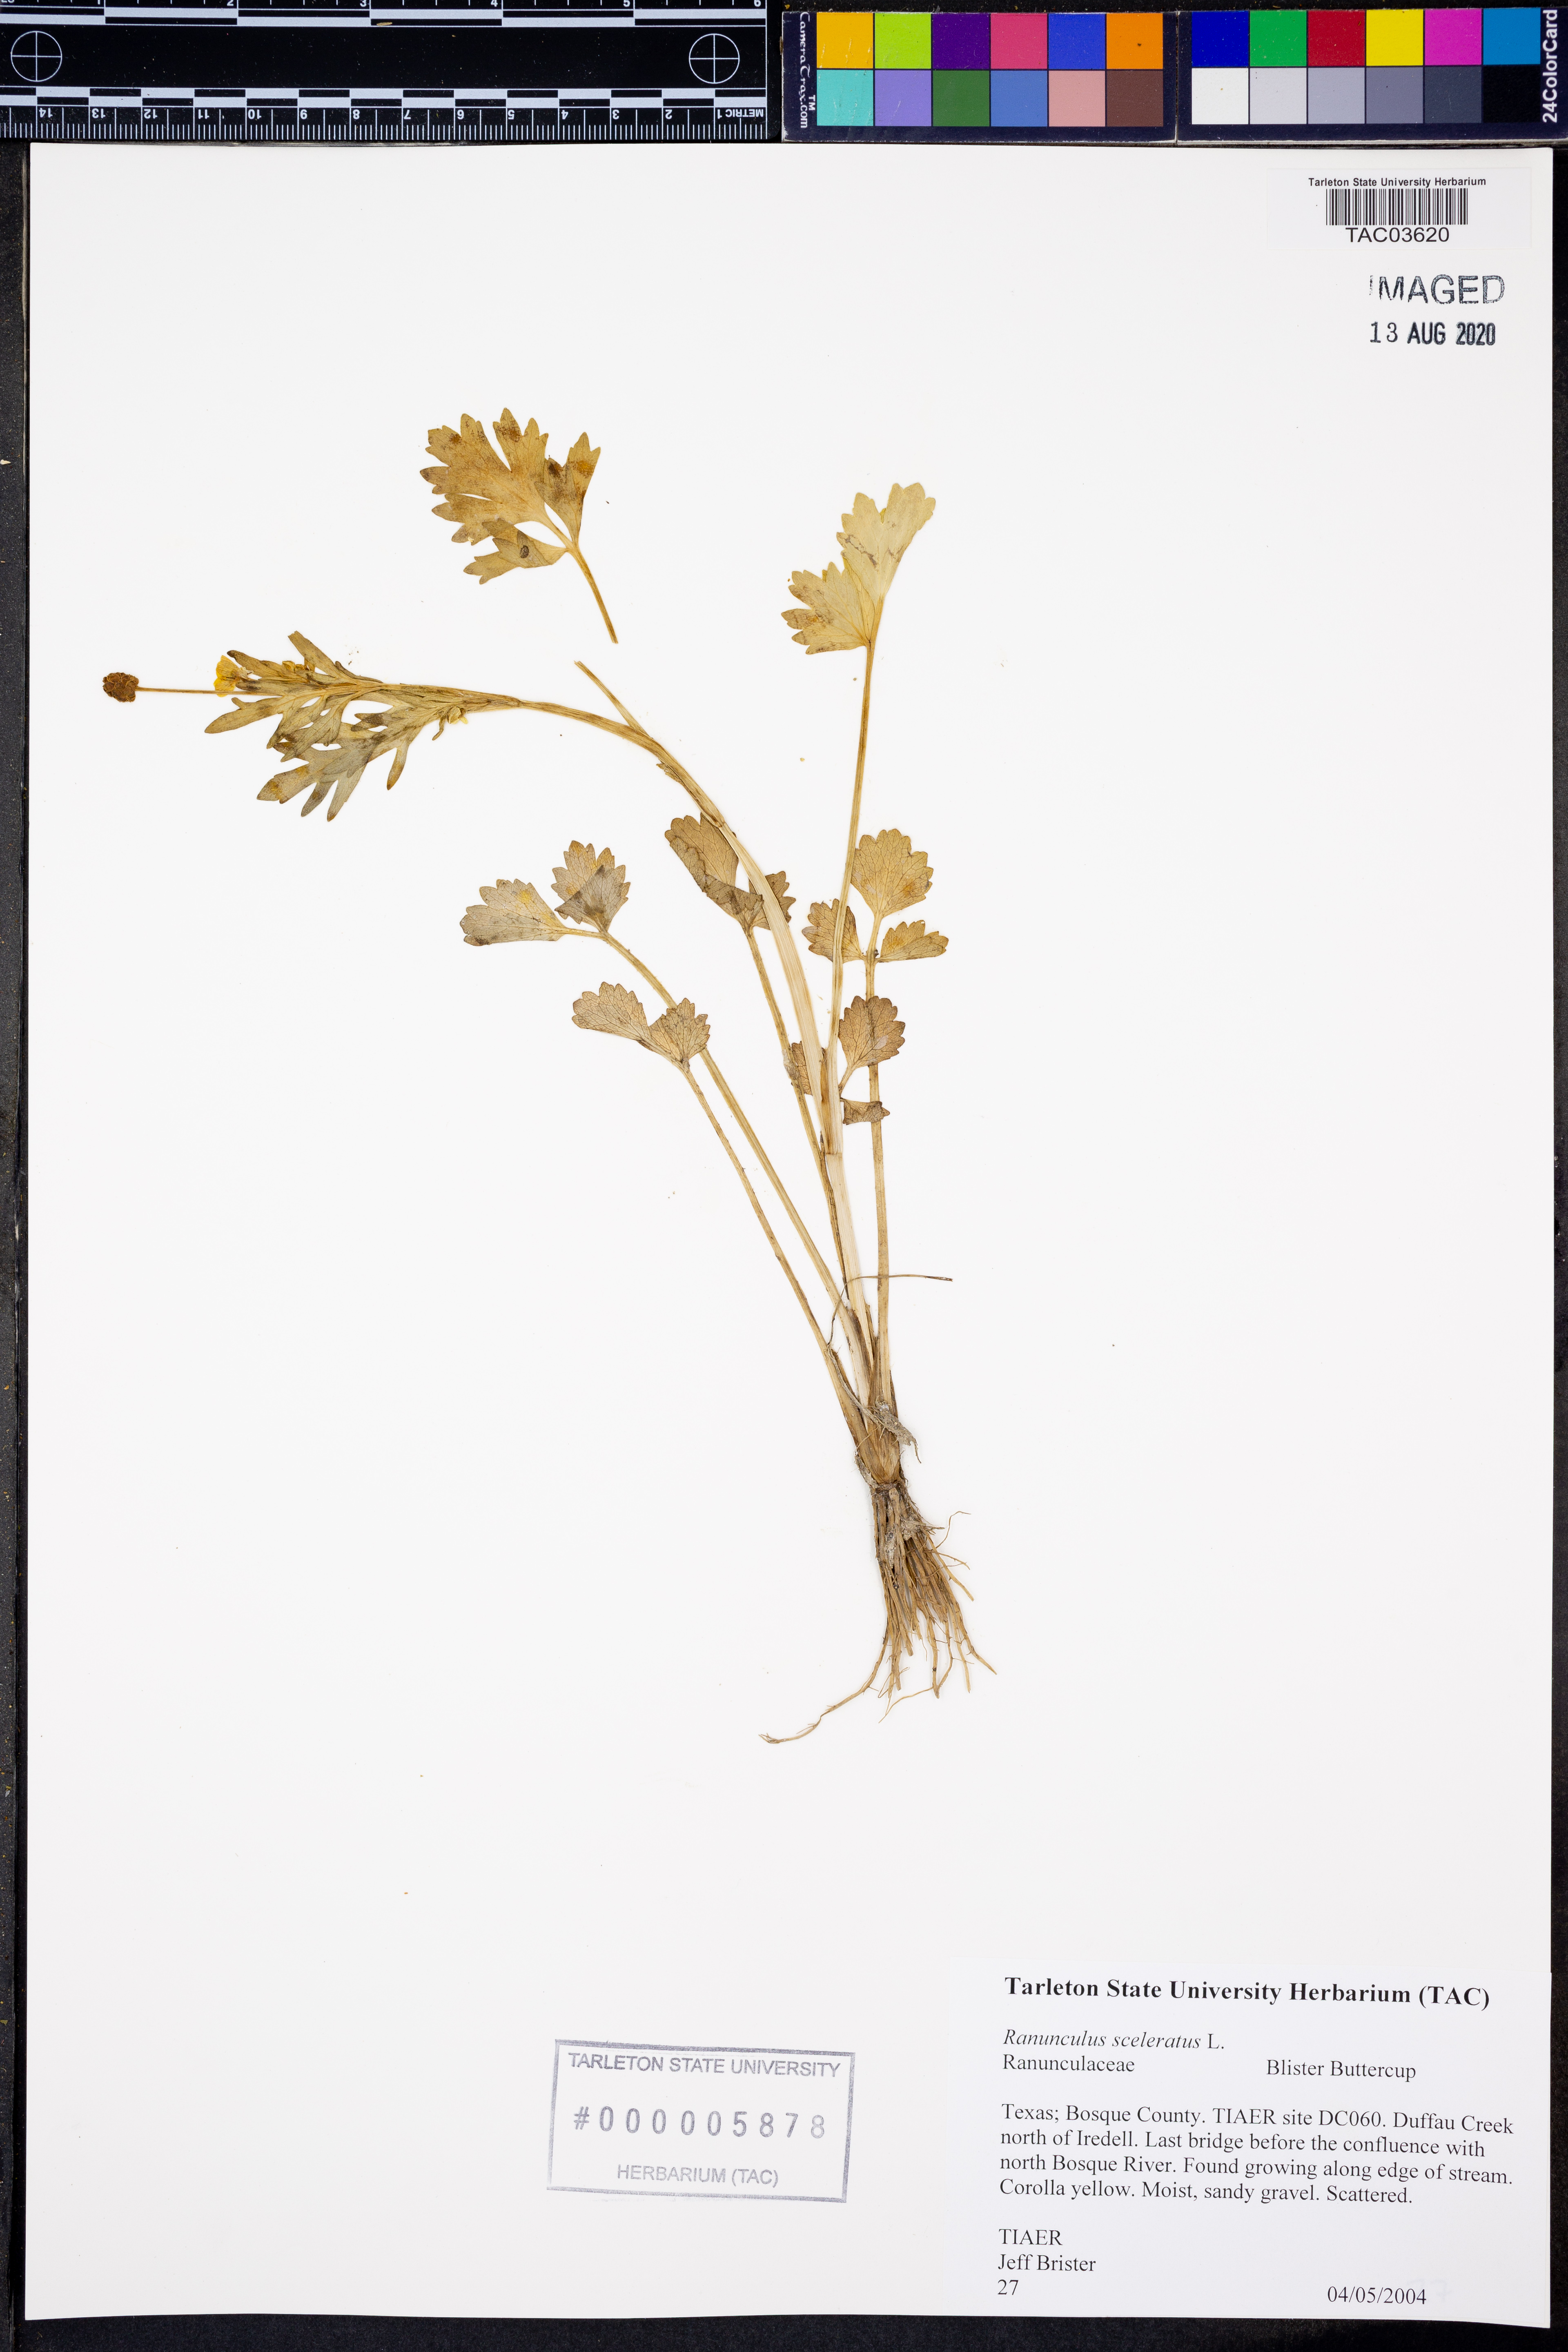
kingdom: Plantae
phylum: Tracheophyta
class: Magnoliopsida
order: Ranunculales
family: Ranunculaceae
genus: Ranunculus
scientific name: Ranunculus sceleratus
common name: Celery-leaved buttercup
